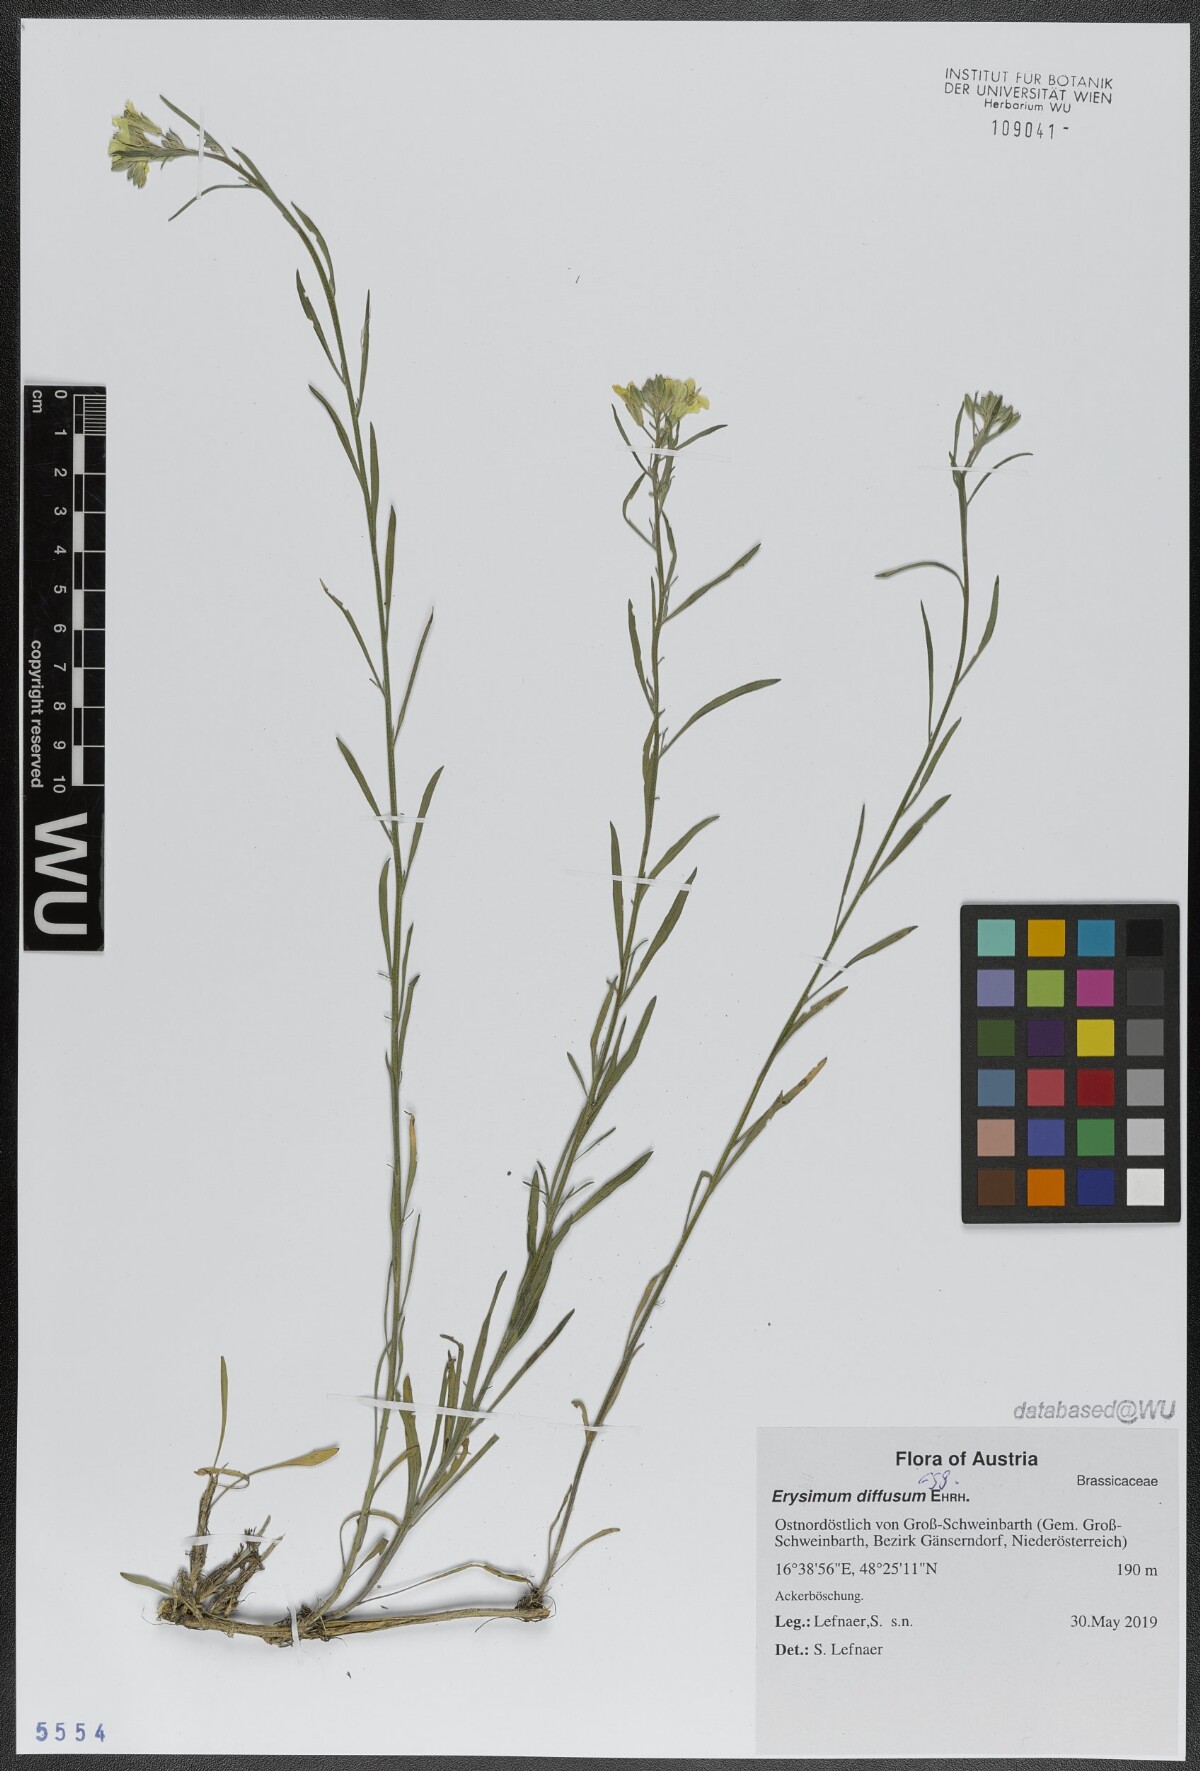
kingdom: Plantae
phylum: Tracheophyta
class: Magnoliopsida
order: Brassicales
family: Brassicaceae
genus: Erysimum
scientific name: Erysimum diffusum
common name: Diffuse wallflower
